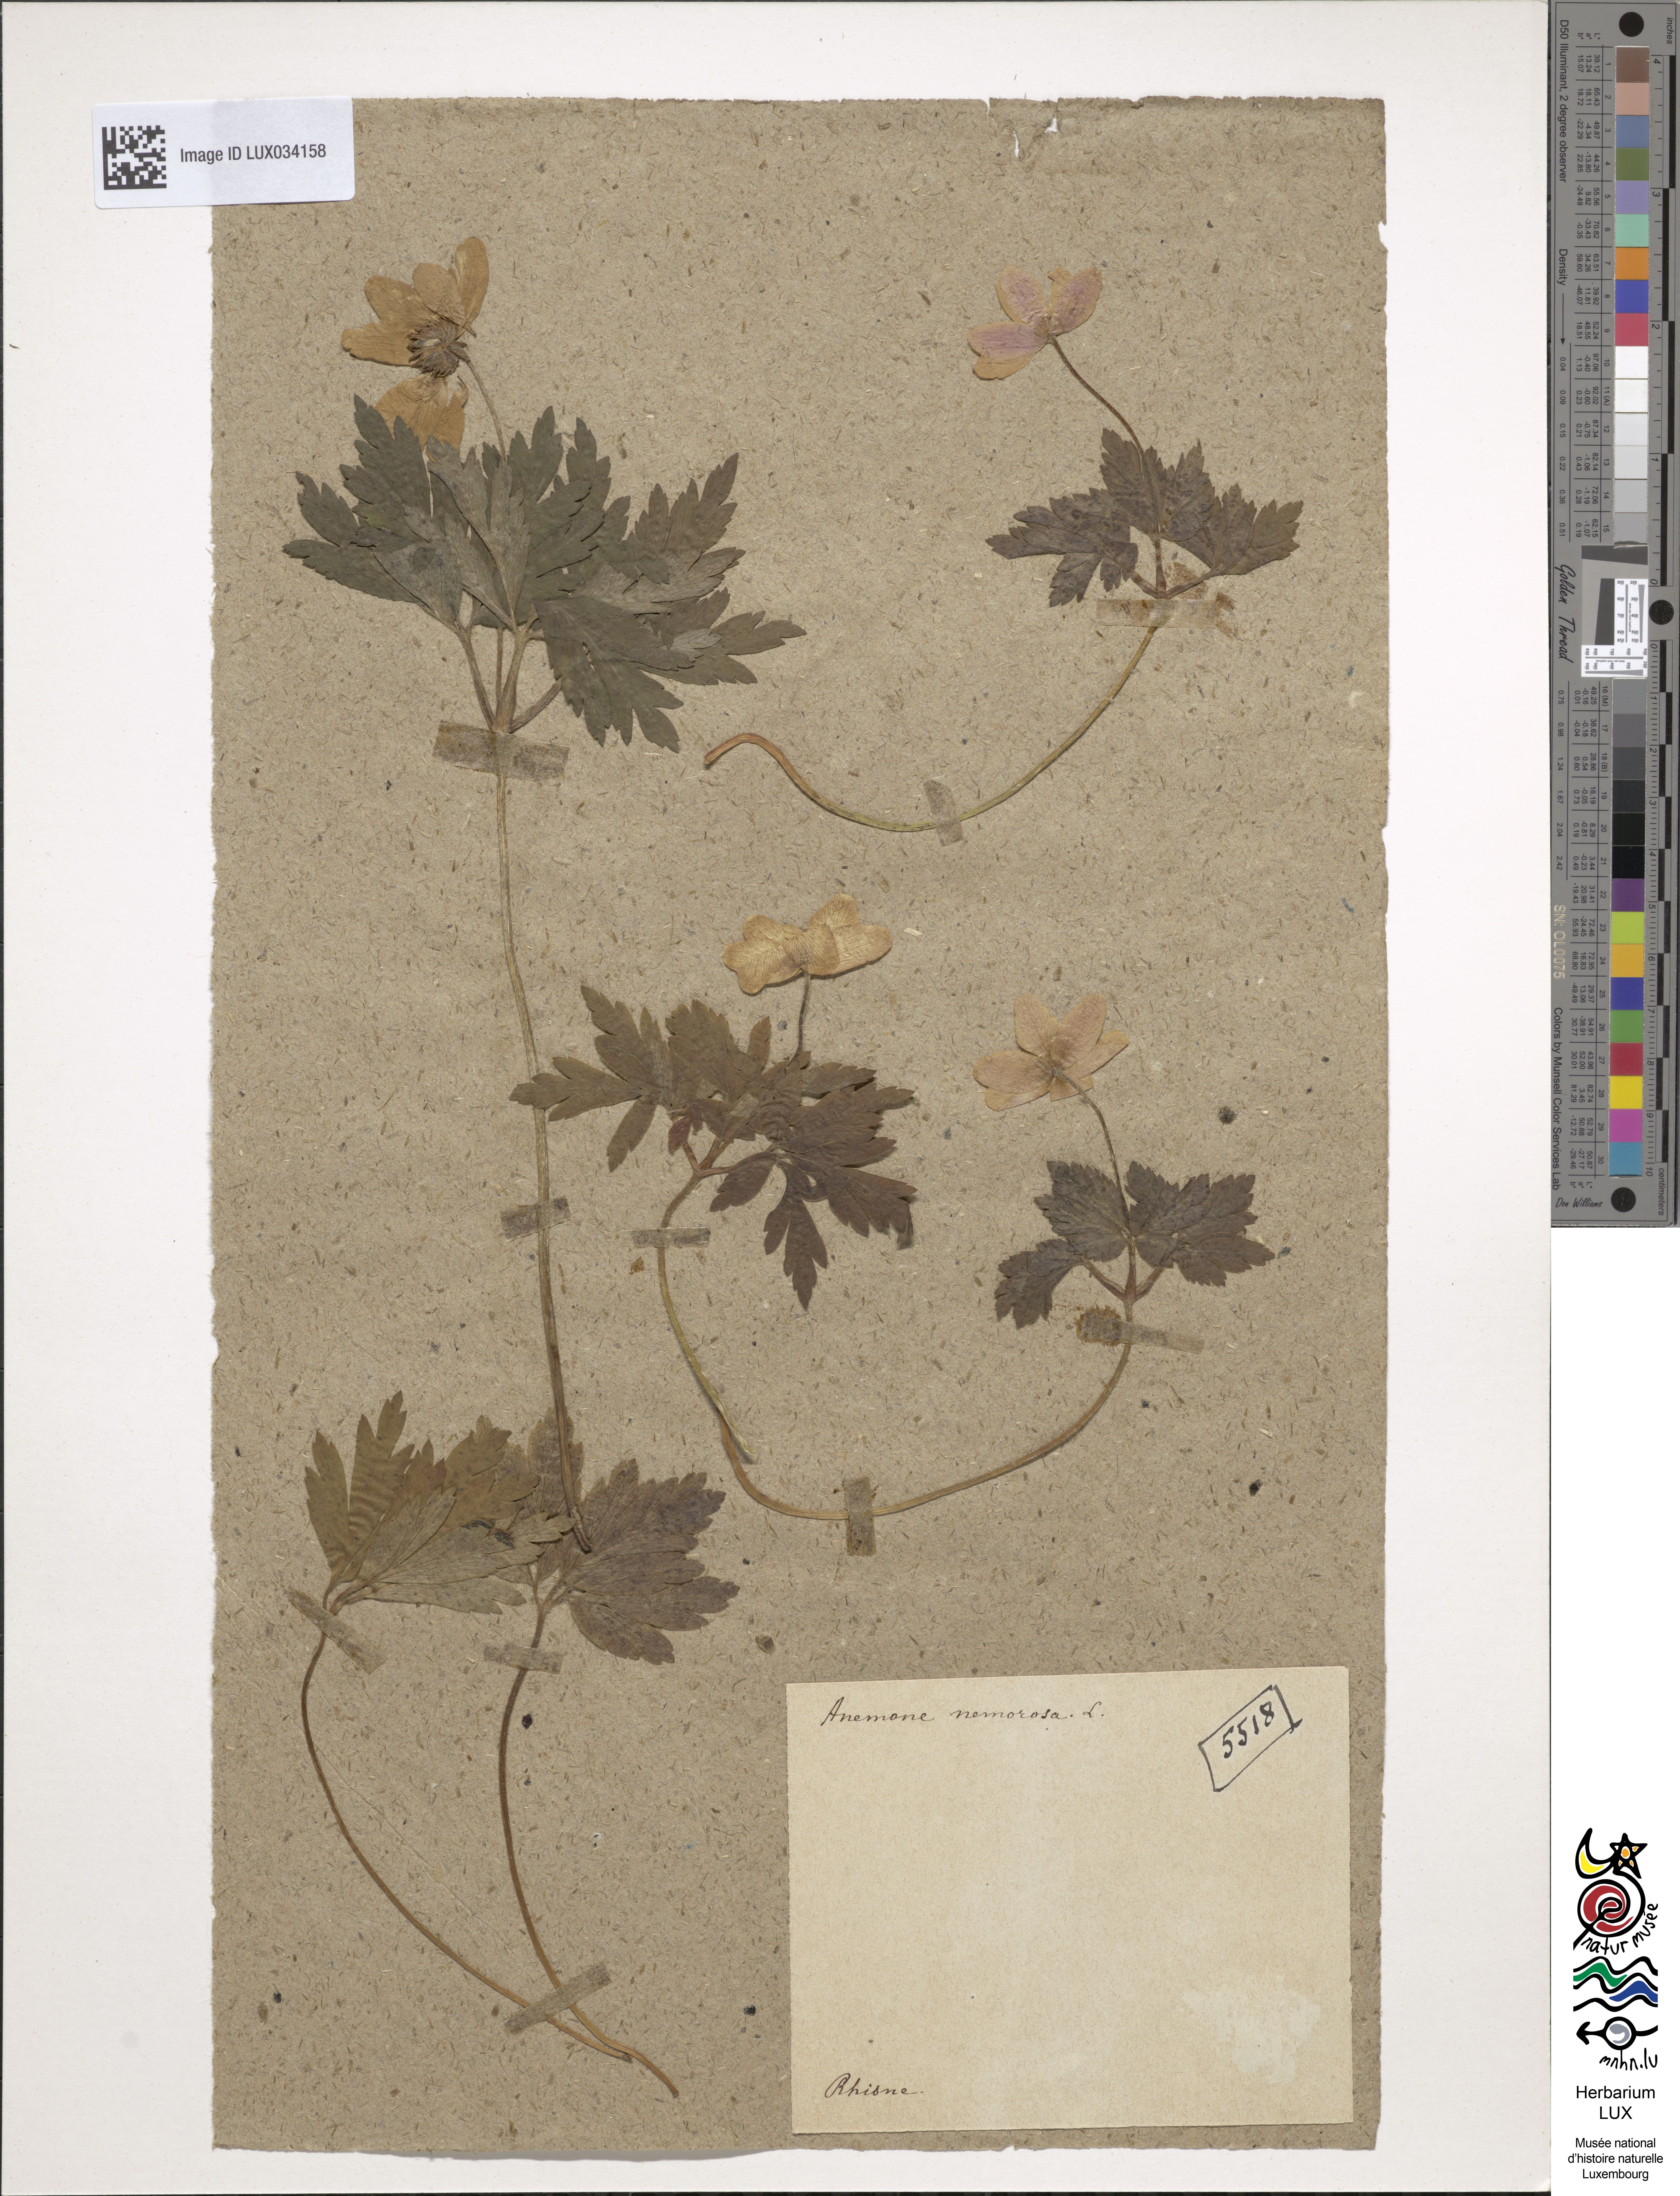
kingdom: Plantae
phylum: Tracheophyta
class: Magnoliopsida
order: Ranunculales
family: Ranunculaceae
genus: Anemone
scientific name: Anemone nemorosa
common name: Wood anemone
